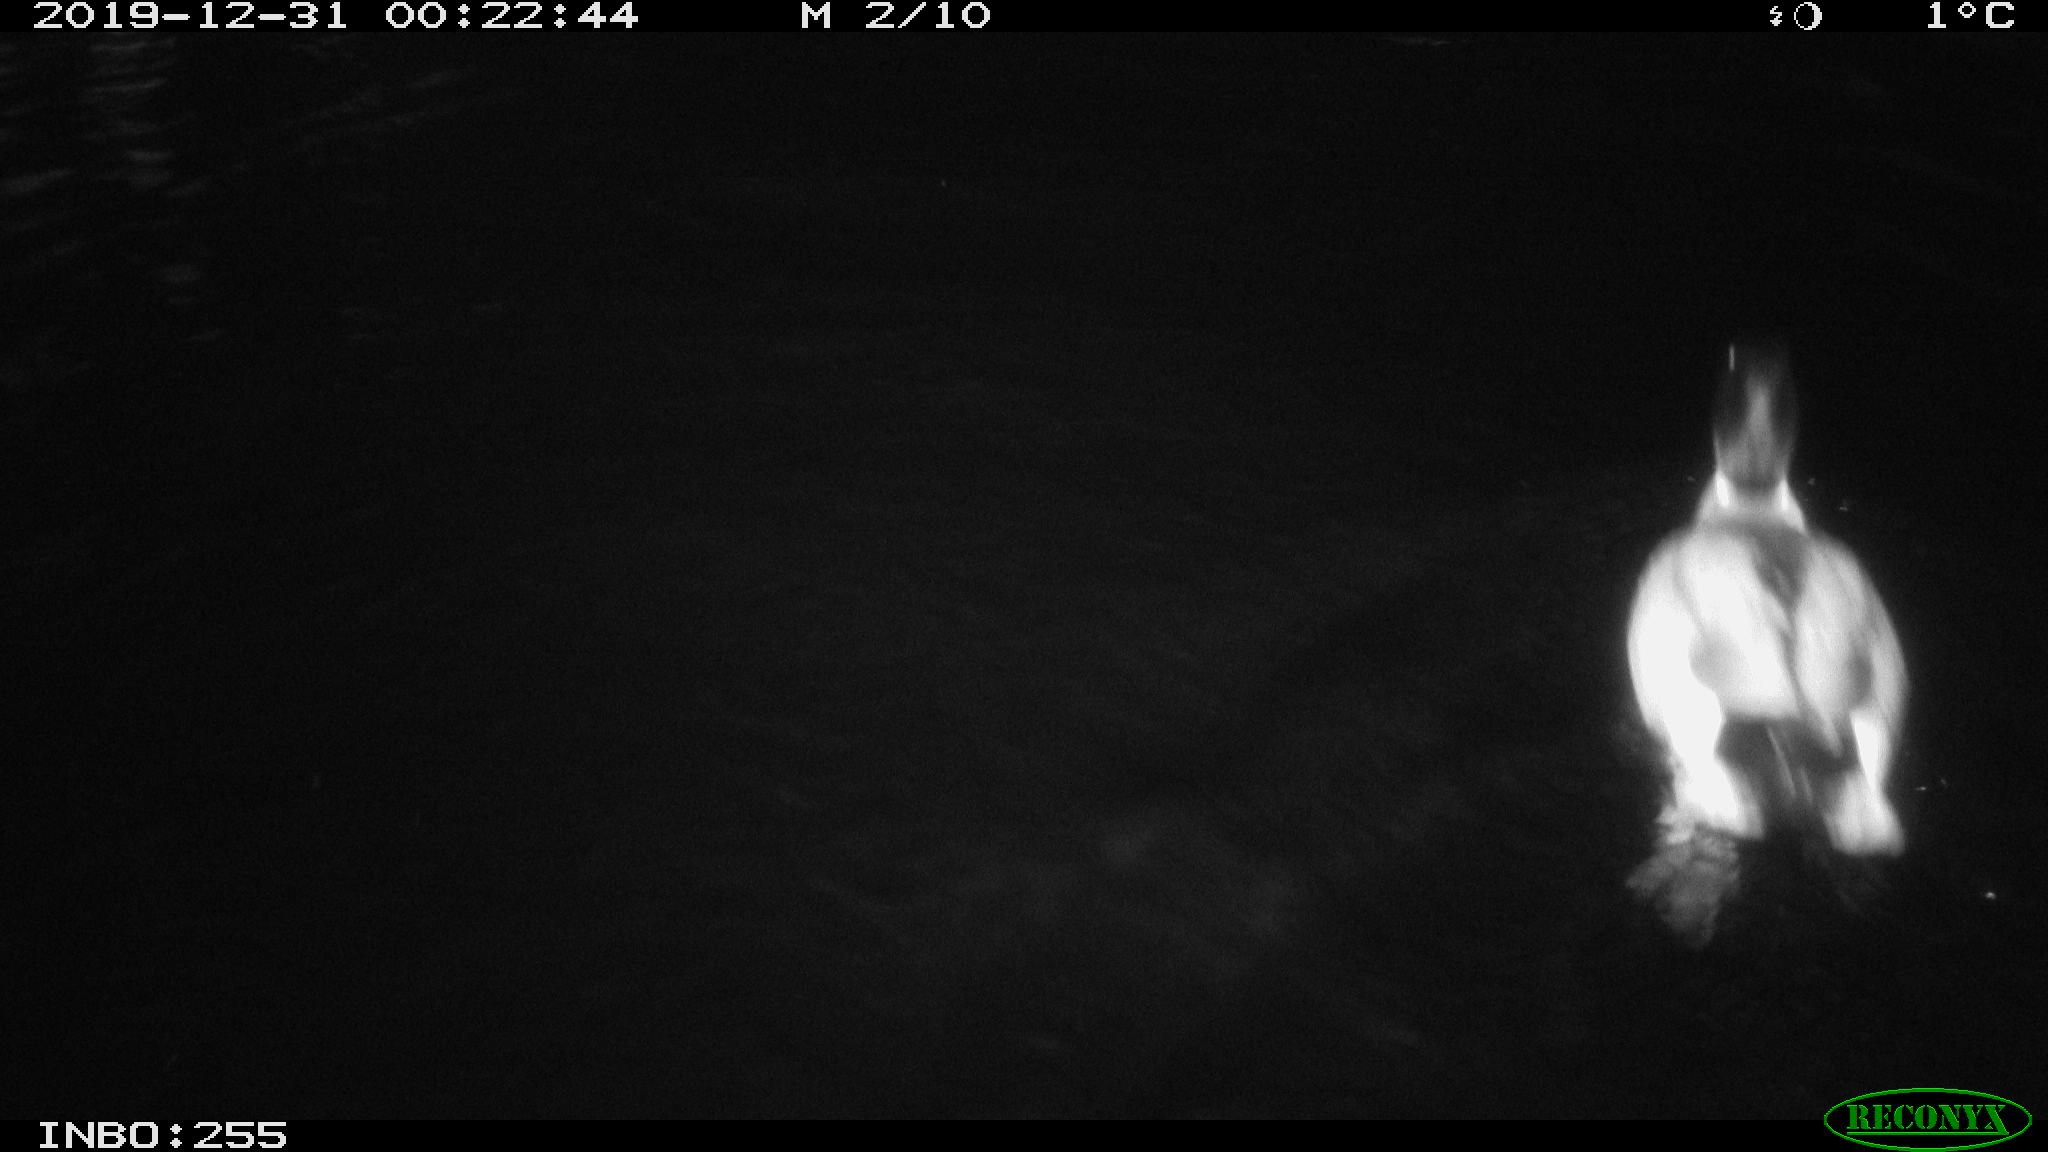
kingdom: Animalia
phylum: Chordata
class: Aves
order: Anseriformes
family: Anatidae
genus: Anas
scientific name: Anas platyrhynchos
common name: Mallard
